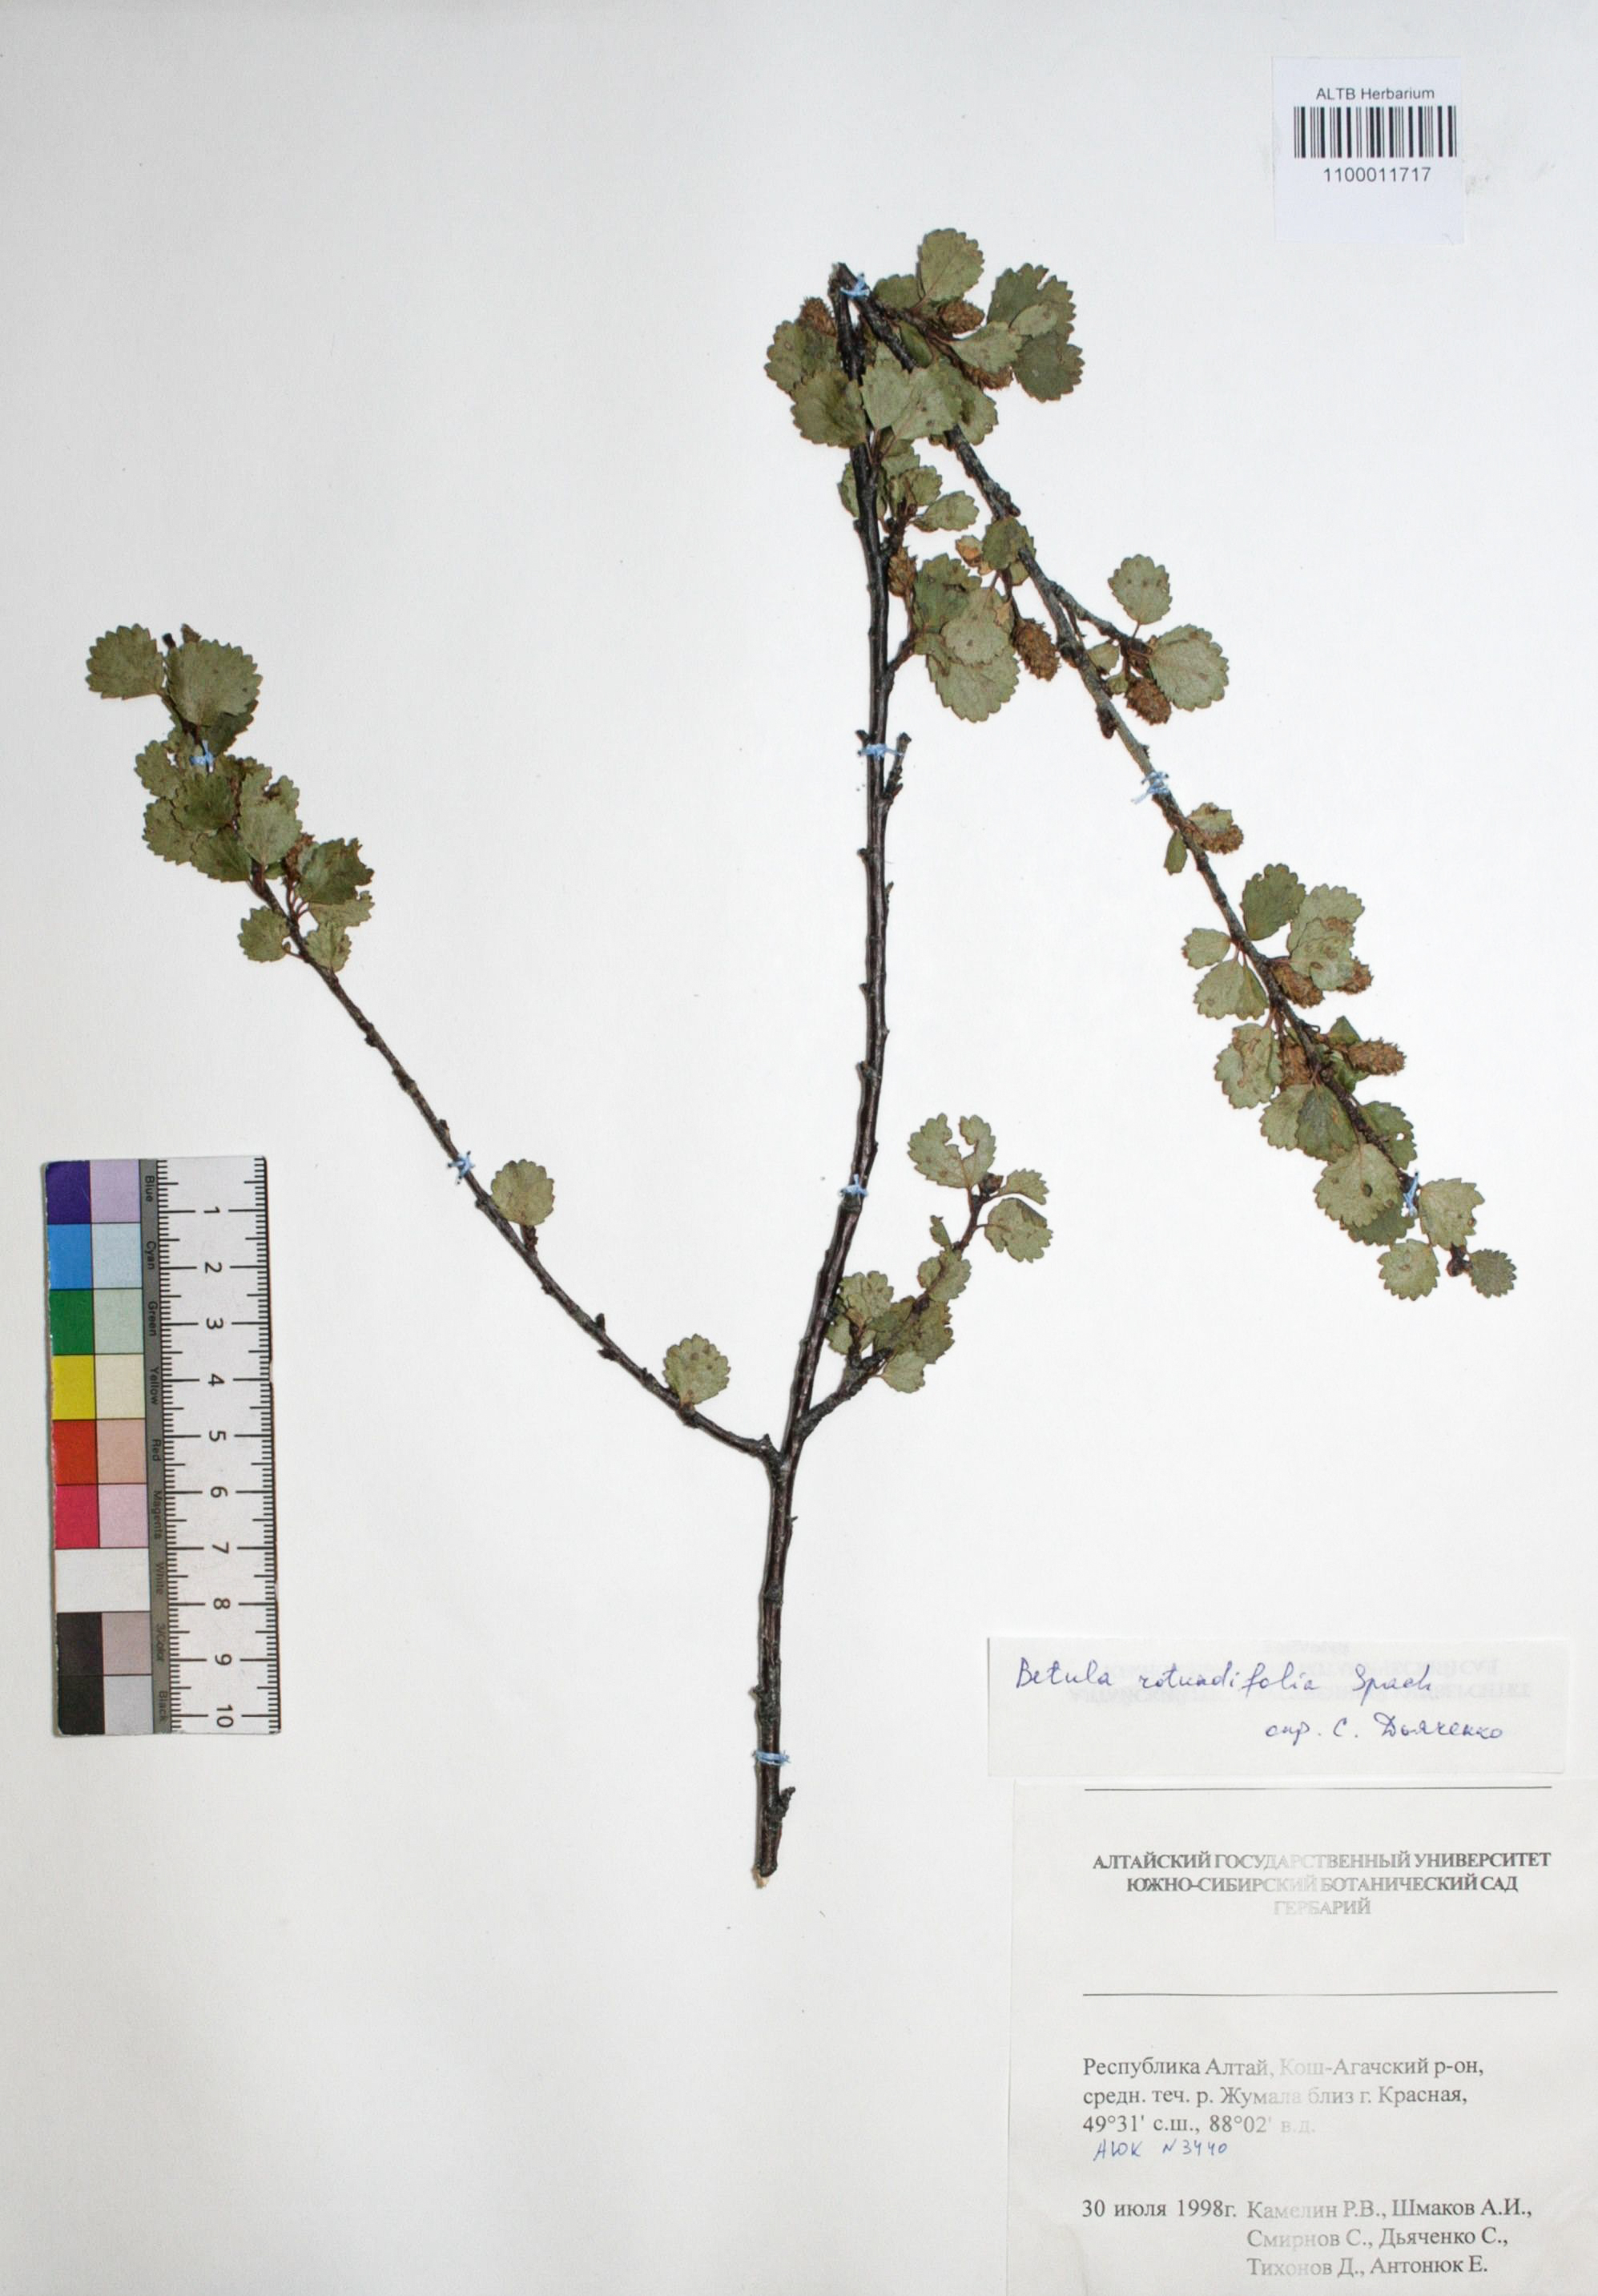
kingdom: Plantae
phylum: Tracheophyta
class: Magnoliopsida
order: Fagales
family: Betulaceae
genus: Betula
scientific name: Betula glandulosa
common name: Dwarf birch
